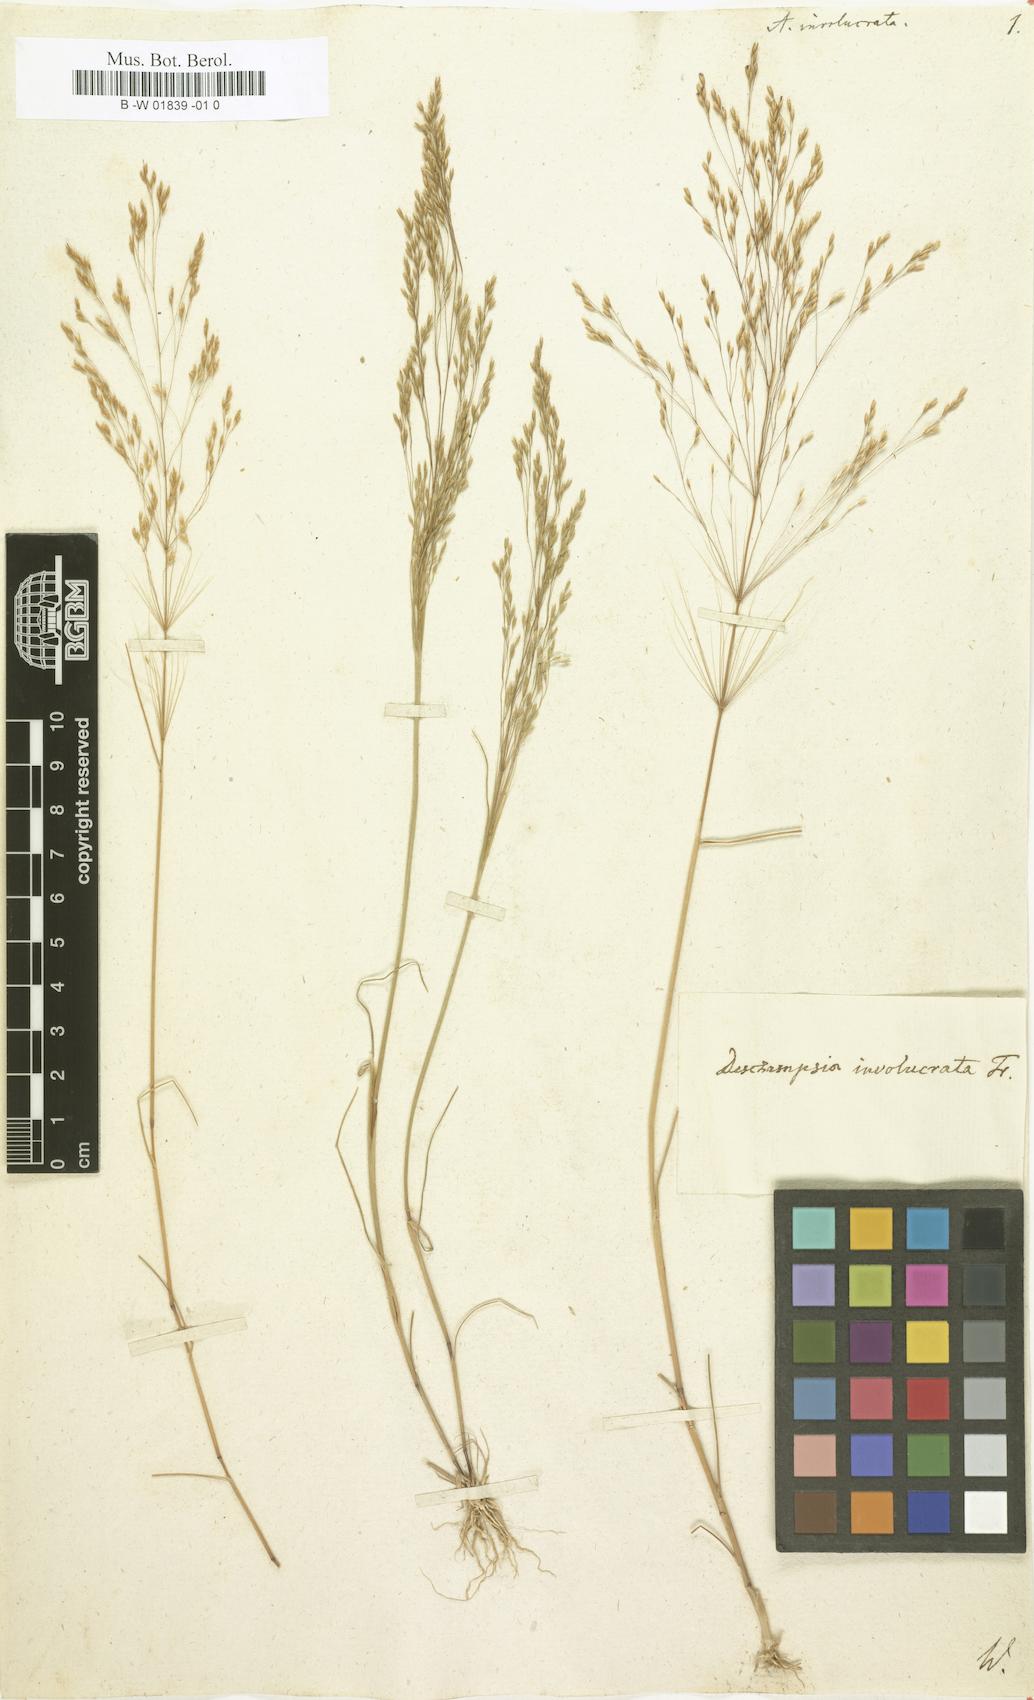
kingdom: Plantae
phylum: Tracheophyta
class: Liliopsida
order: Poales
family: Poaceae
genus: Periballia
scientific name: Periballia involucrata
